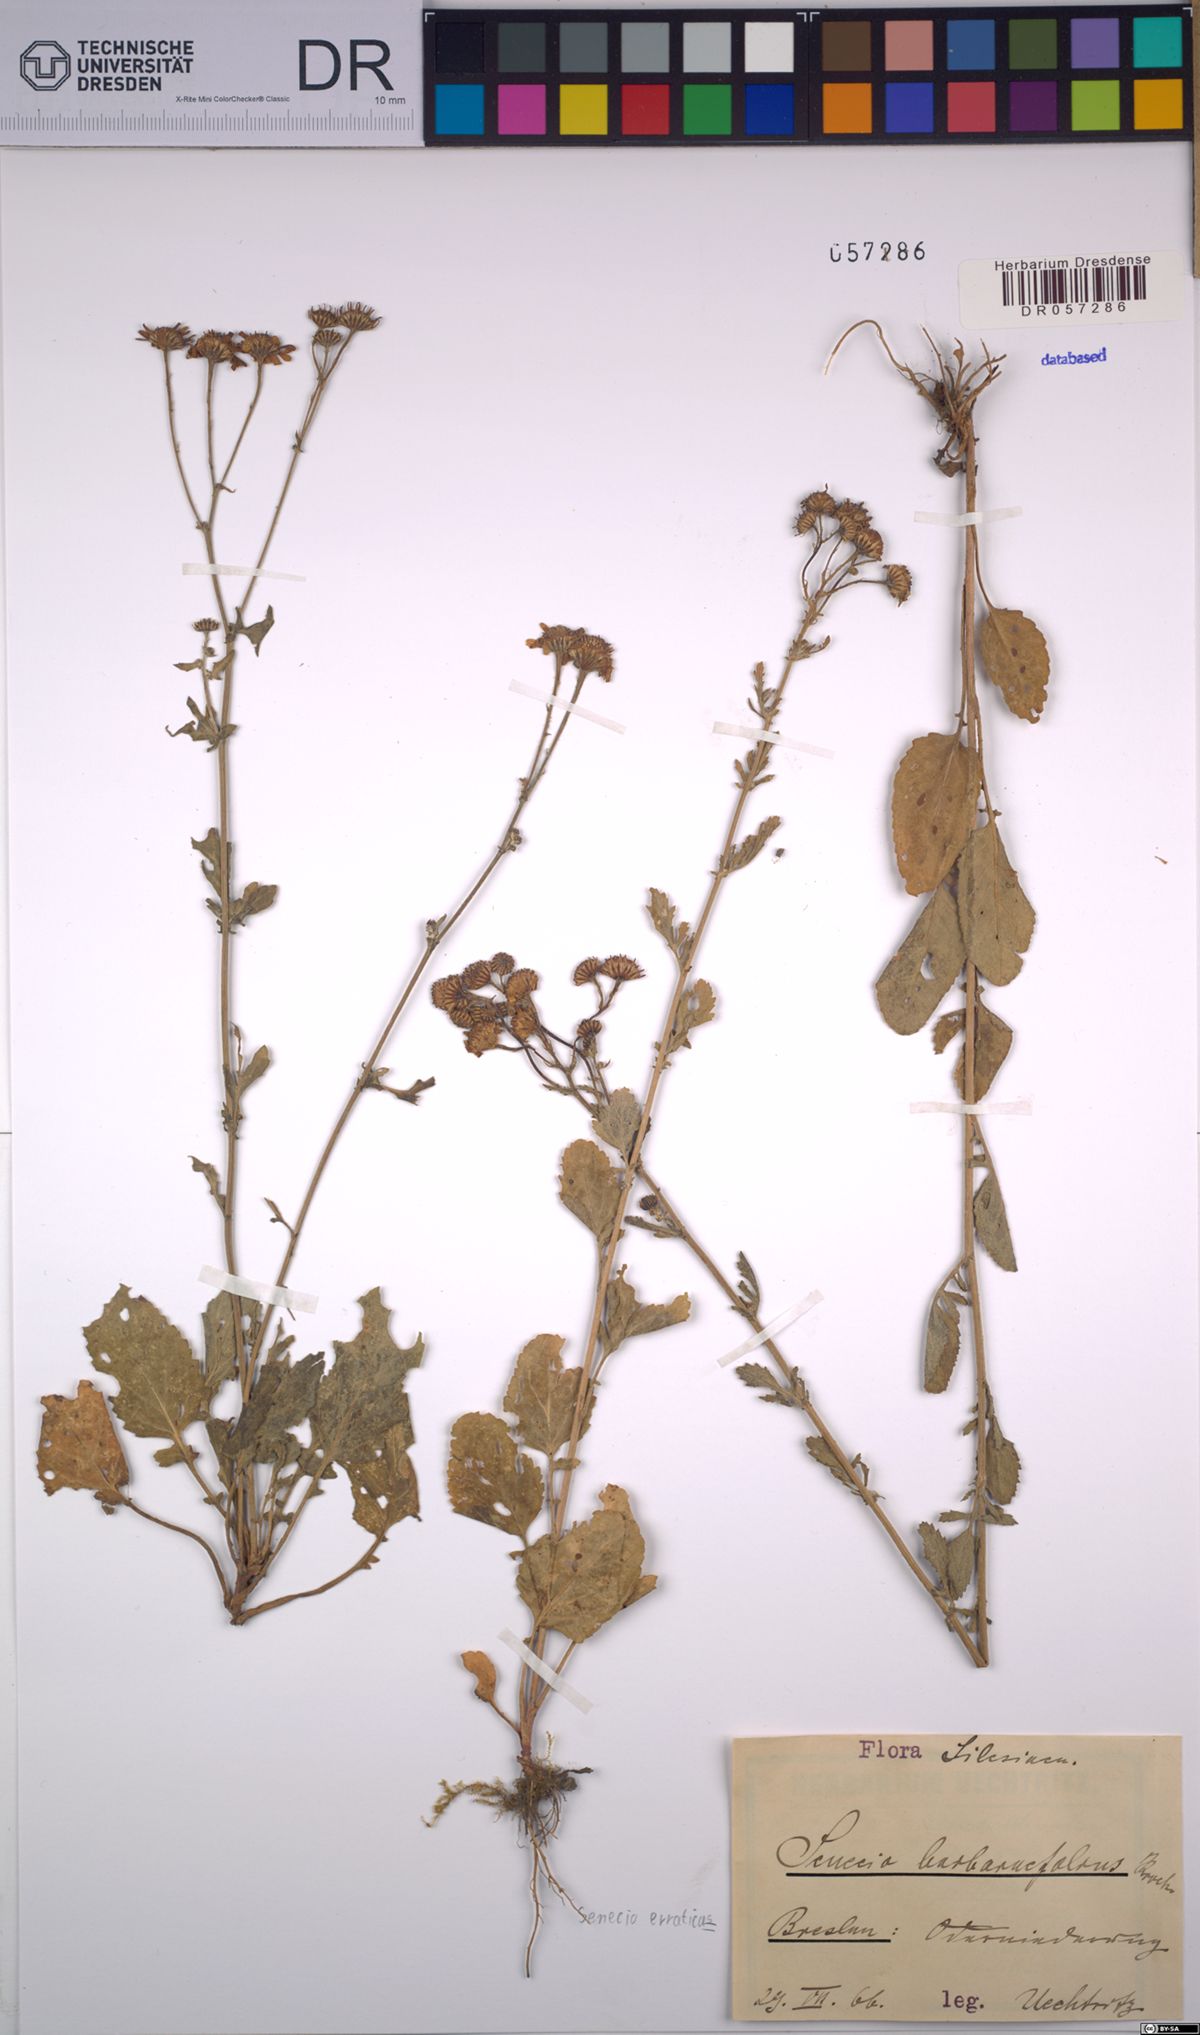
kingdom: Plantae
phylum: Tracheophyta
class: Magnoliopsida
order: Asterales
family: Asteraceae
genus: Jacobaea
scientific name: Jacobaea erratica
